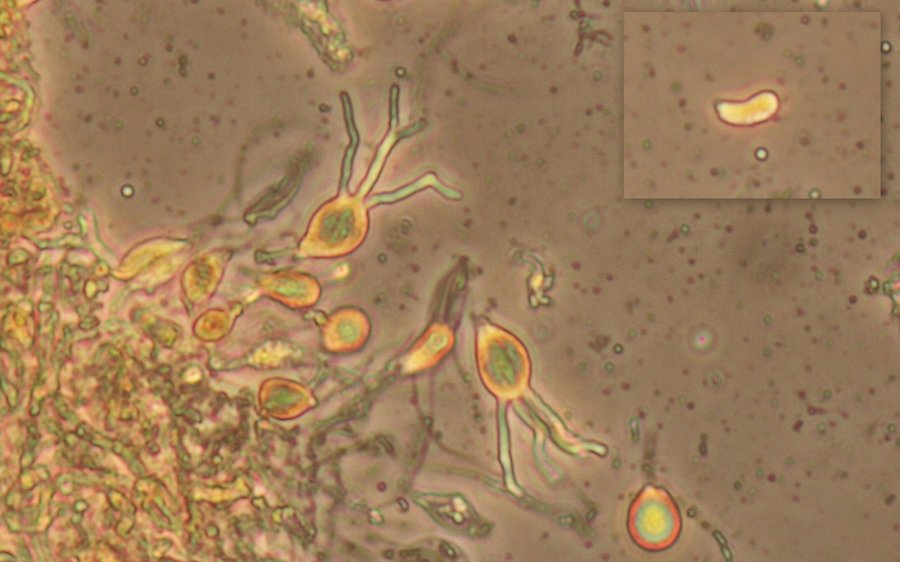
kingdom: Fungi
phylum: Basidiomycota
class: Tremellomycetes
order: Tremellales
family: Exidiaceae
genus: Exidiopsis
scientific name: Exidiopsis effusa
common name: smuk bævrehinde
